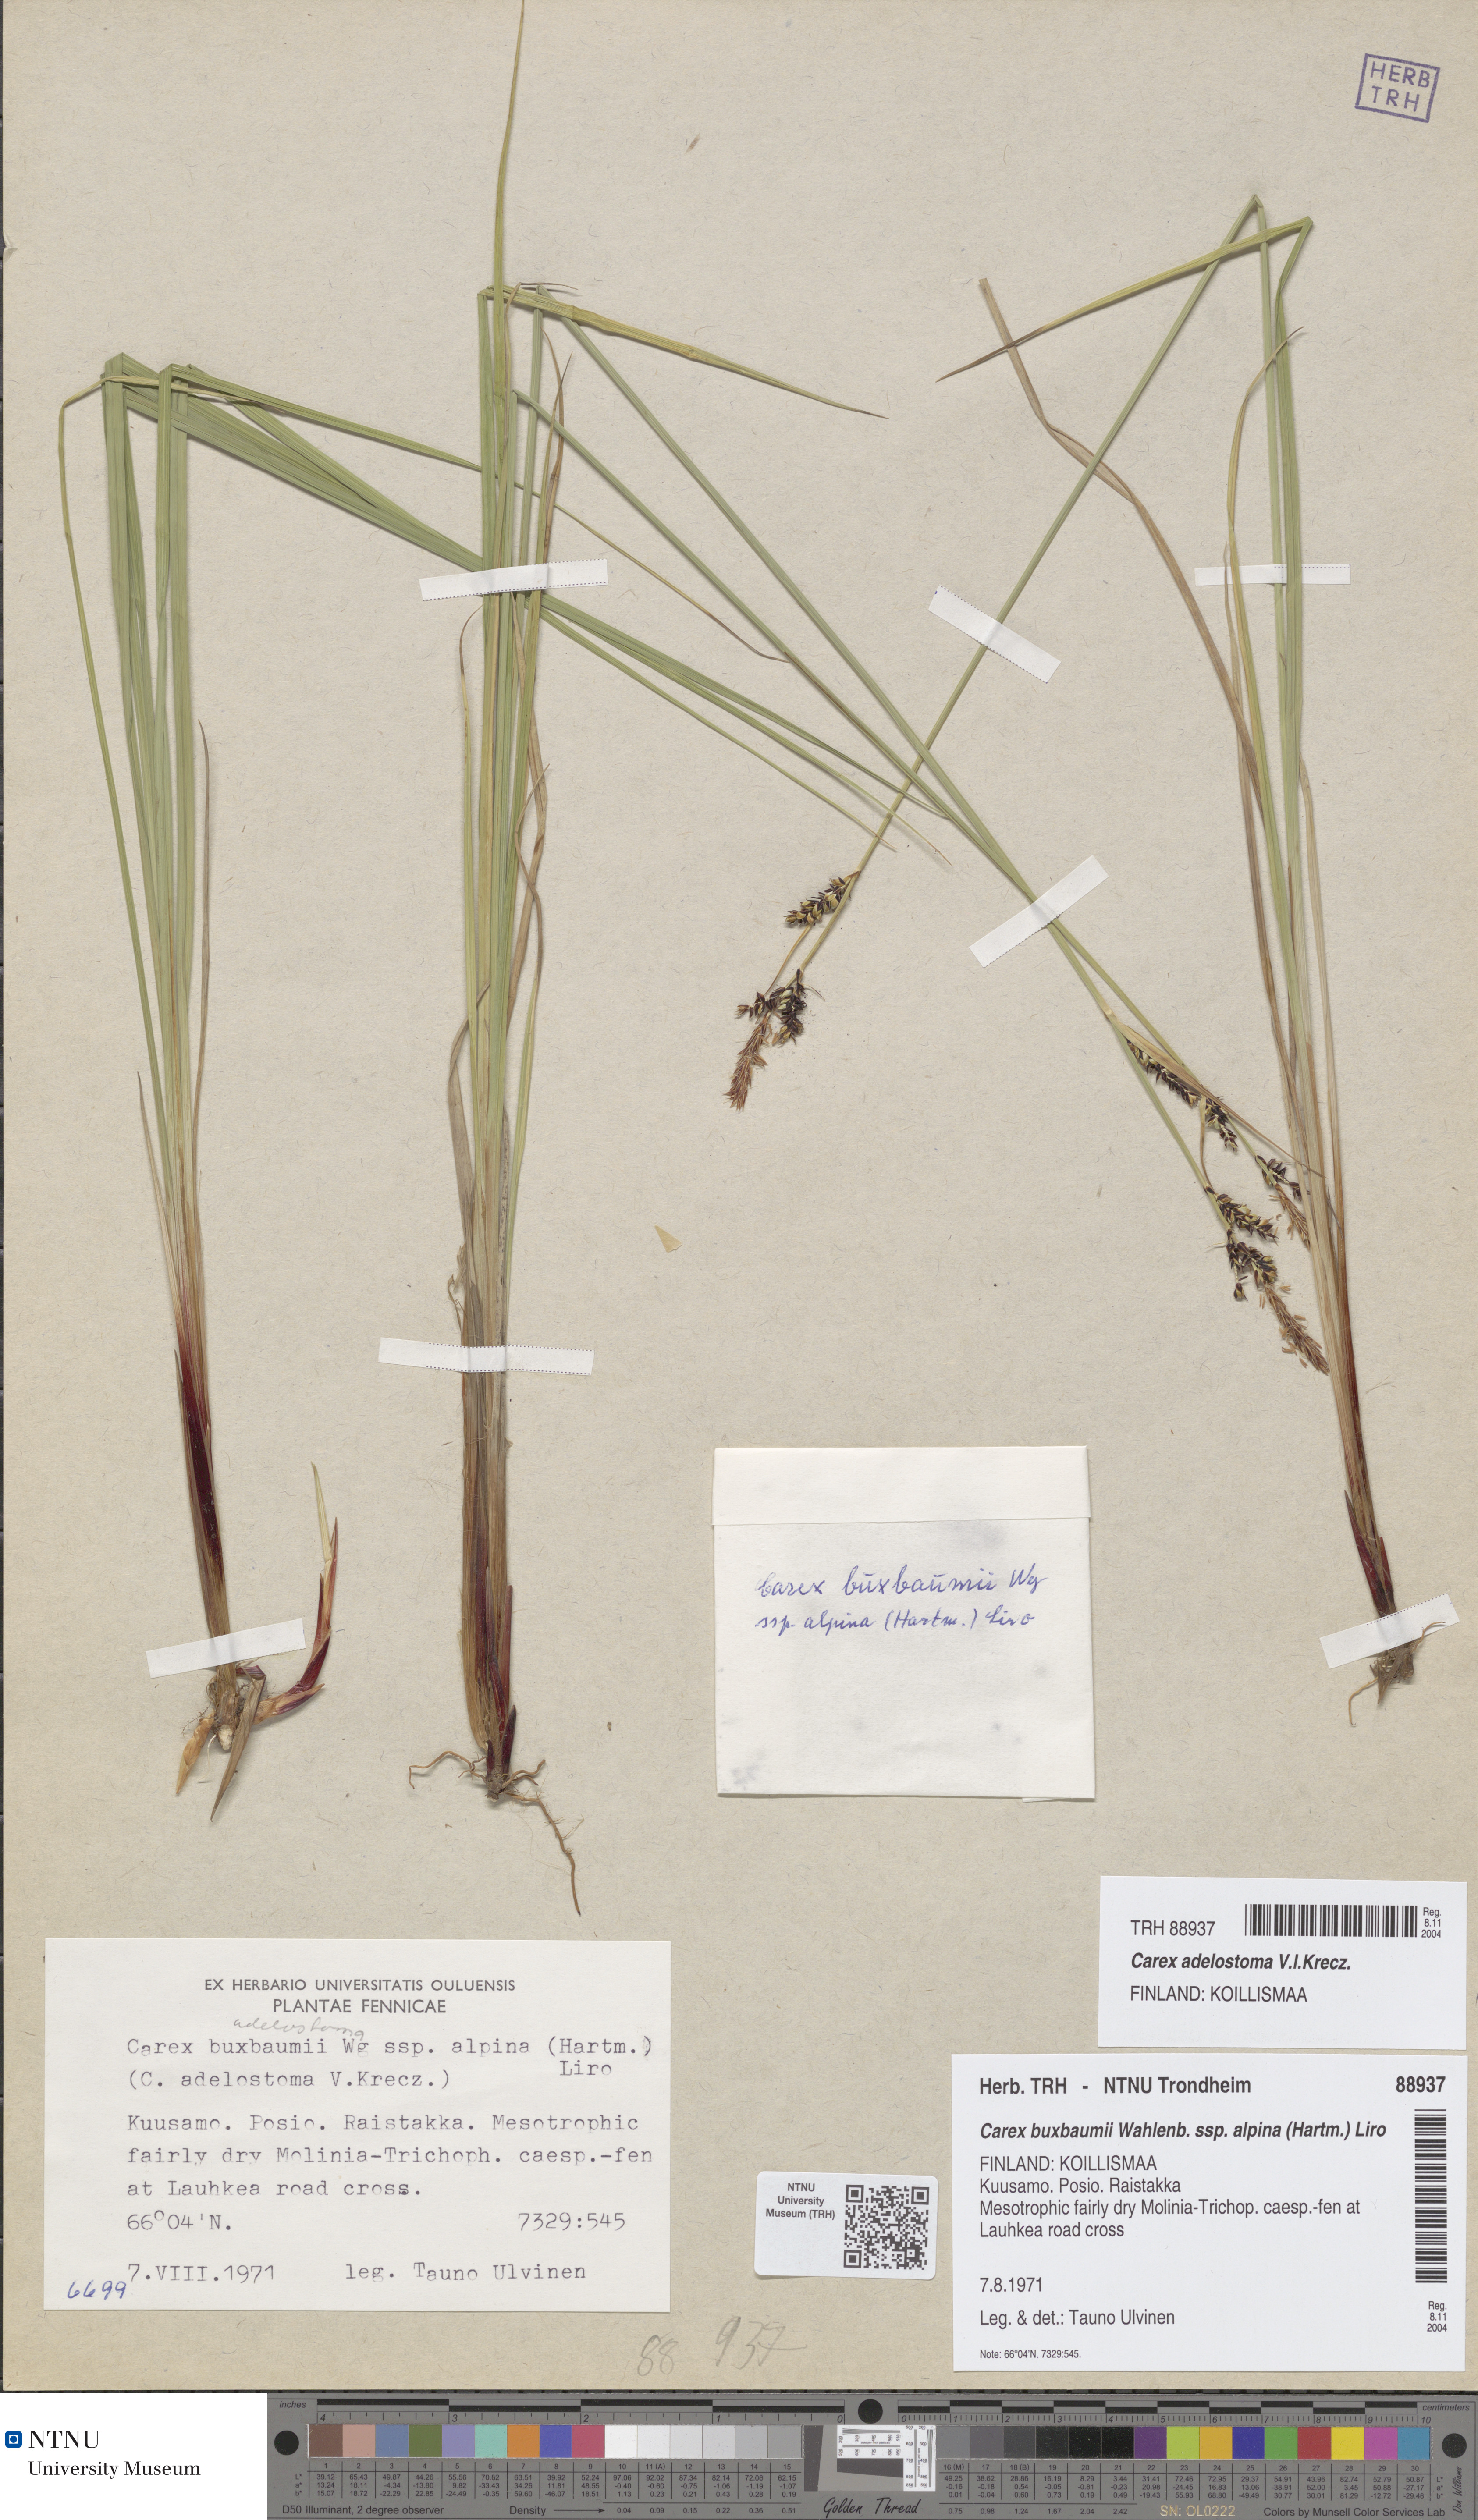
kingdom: Plantae
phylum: Tracheophyta
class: Liliopsida
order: Poales
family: Cyperaceae
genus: Carex
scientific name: Carex adelostoma
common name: Circumpolar sedge
